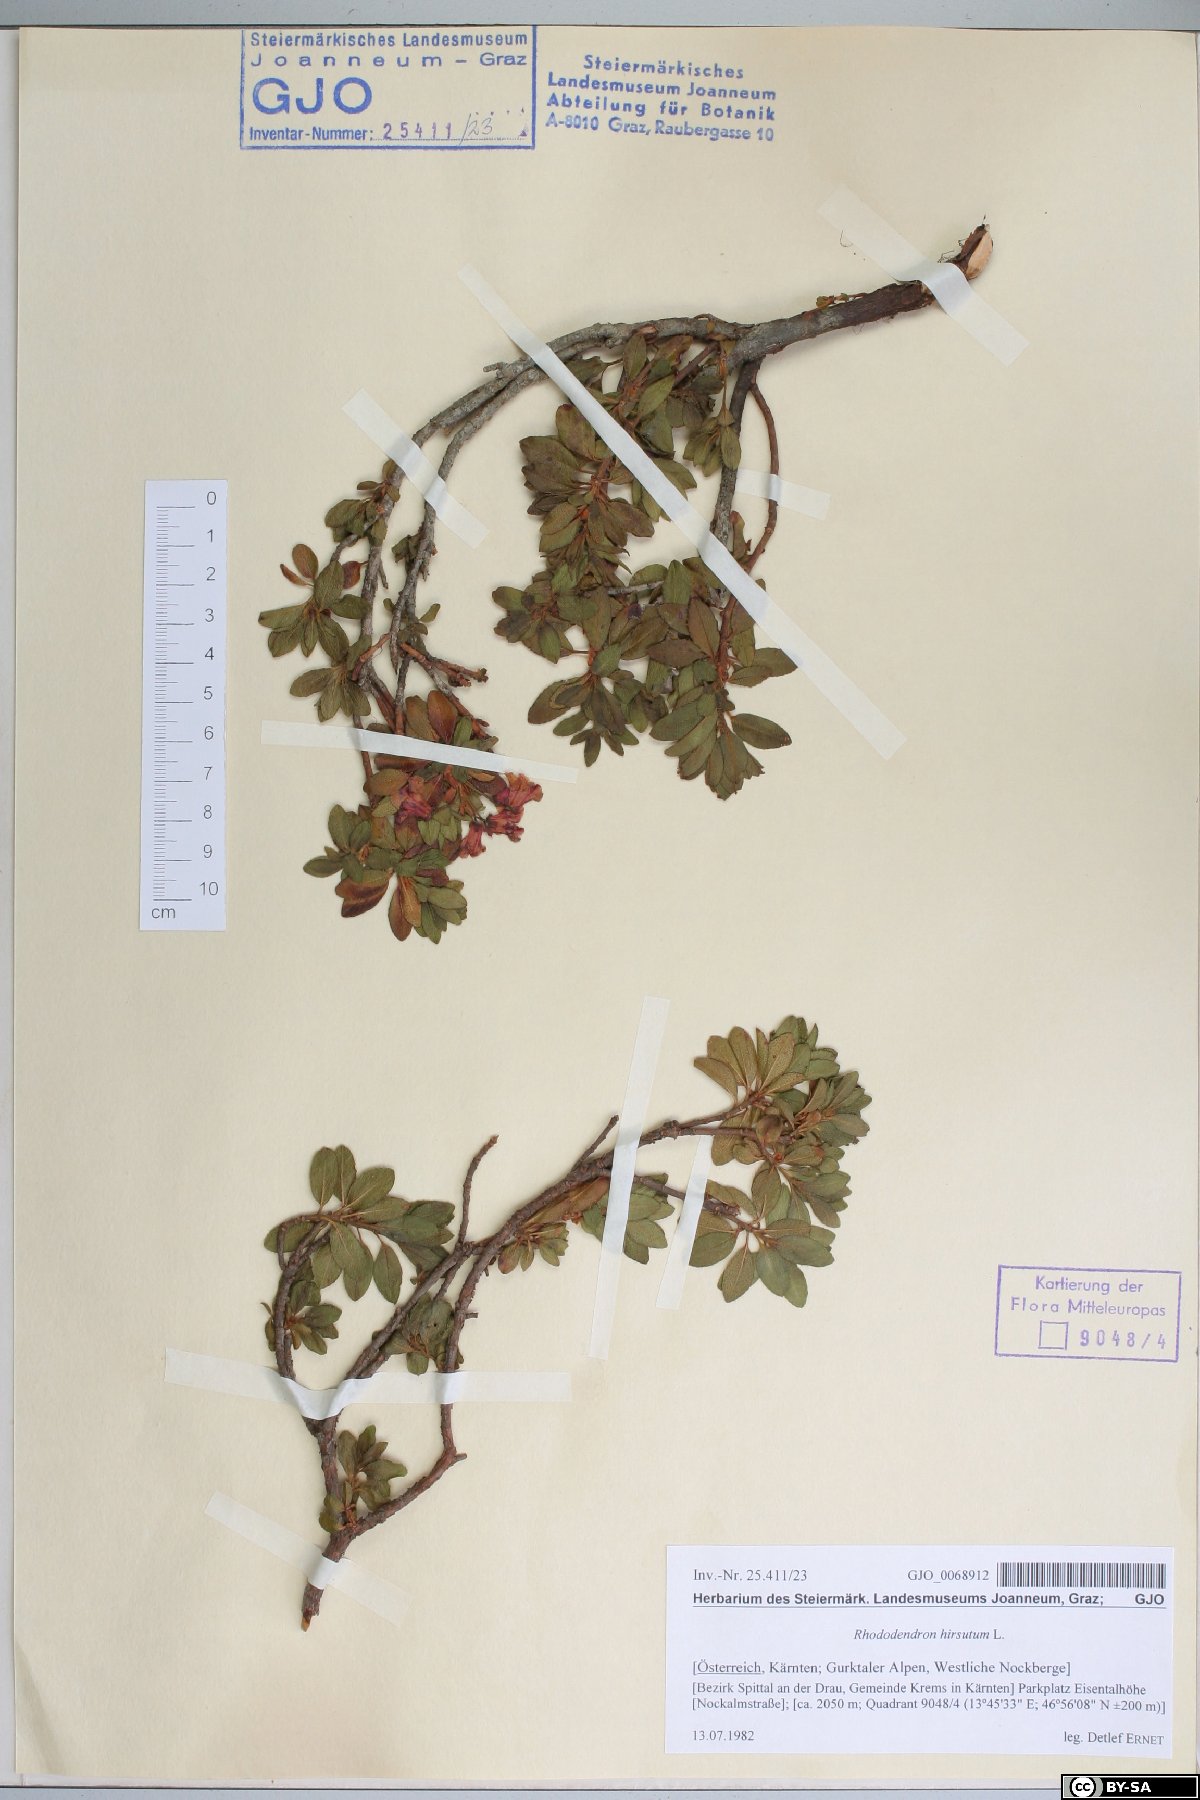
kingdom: Plantae
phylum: Tracheophyta
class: Magnoliopsida
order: Ericales
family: Ericaceae
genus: Rhododendron
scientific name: Rhododendron hirsutum
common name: Hairy alpenrose
